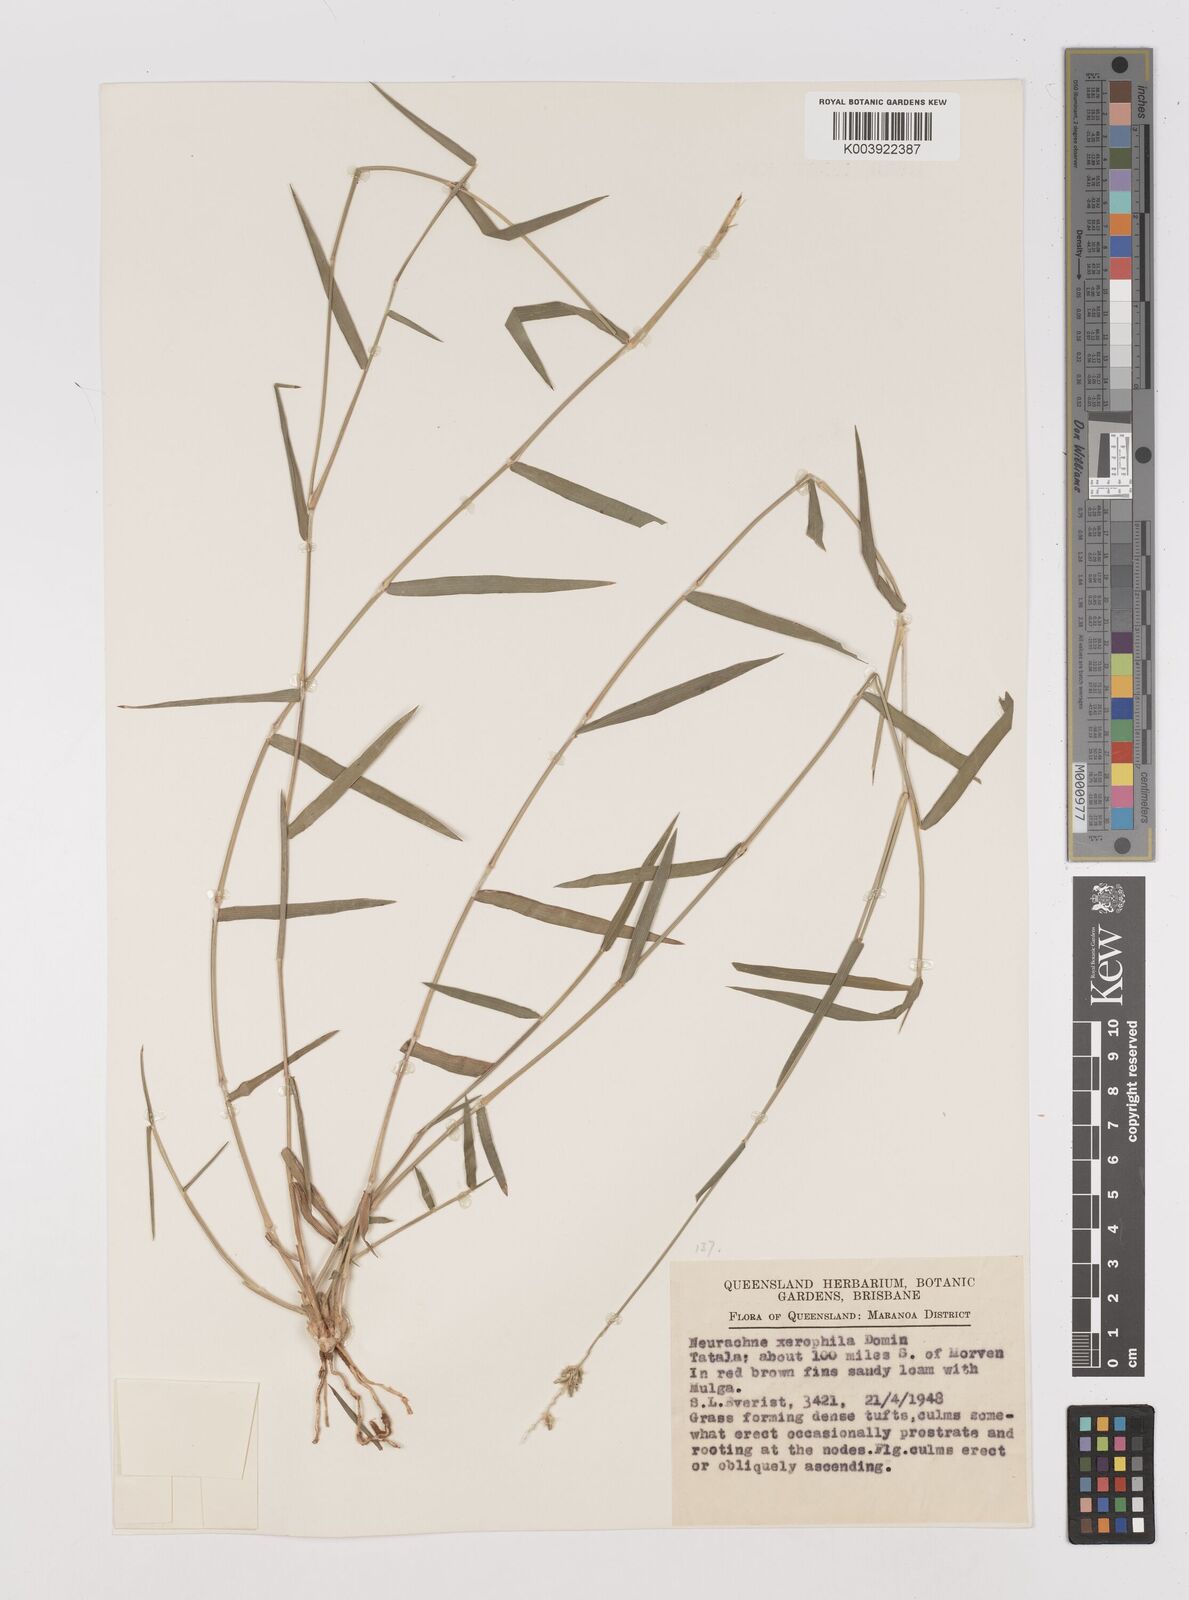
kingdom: Plantae
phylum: Tracheophyta
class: Liliopsida
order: Poales
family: Poaceae
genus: Thyridolepis
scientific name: Thyridolepis xerophila
